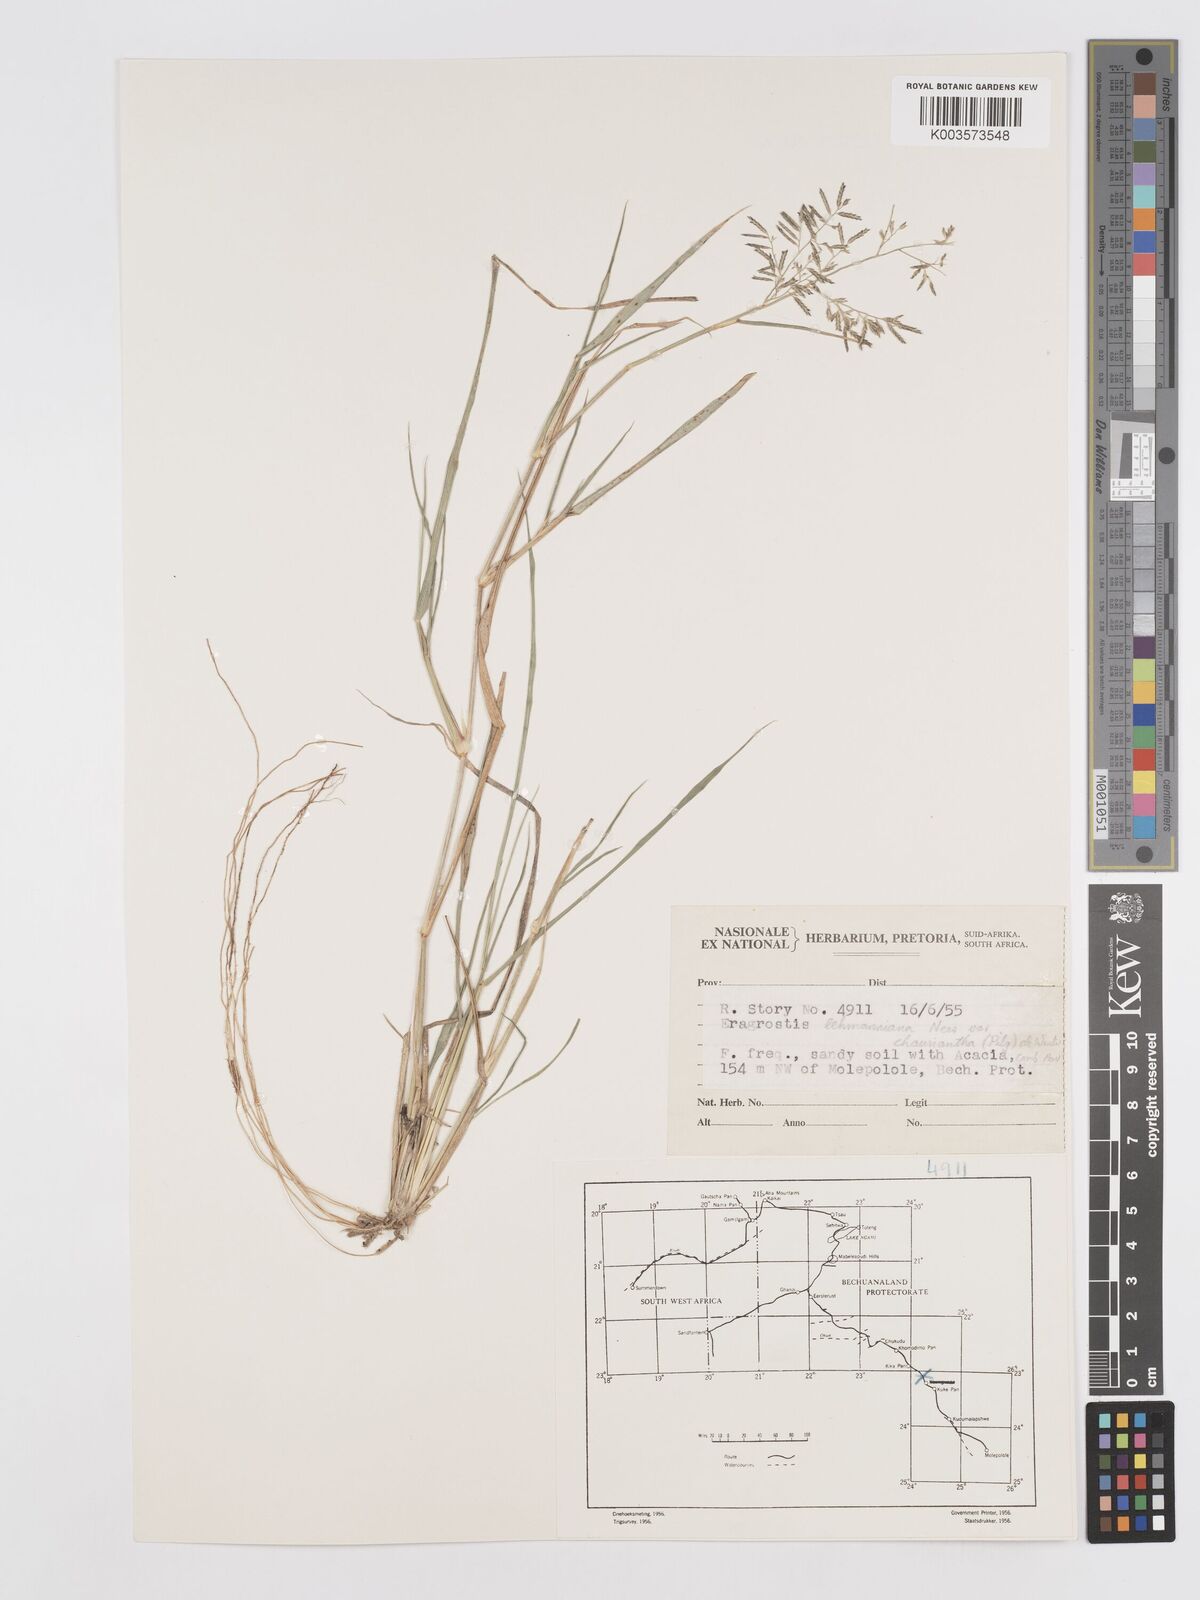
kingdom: Plantae
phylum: Tracheophyta
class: Liliopsida
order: Poales
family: Poaceae
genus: Eragrostis
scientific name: Eragrostis lehmanniana
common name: Lehmann lovegrass
